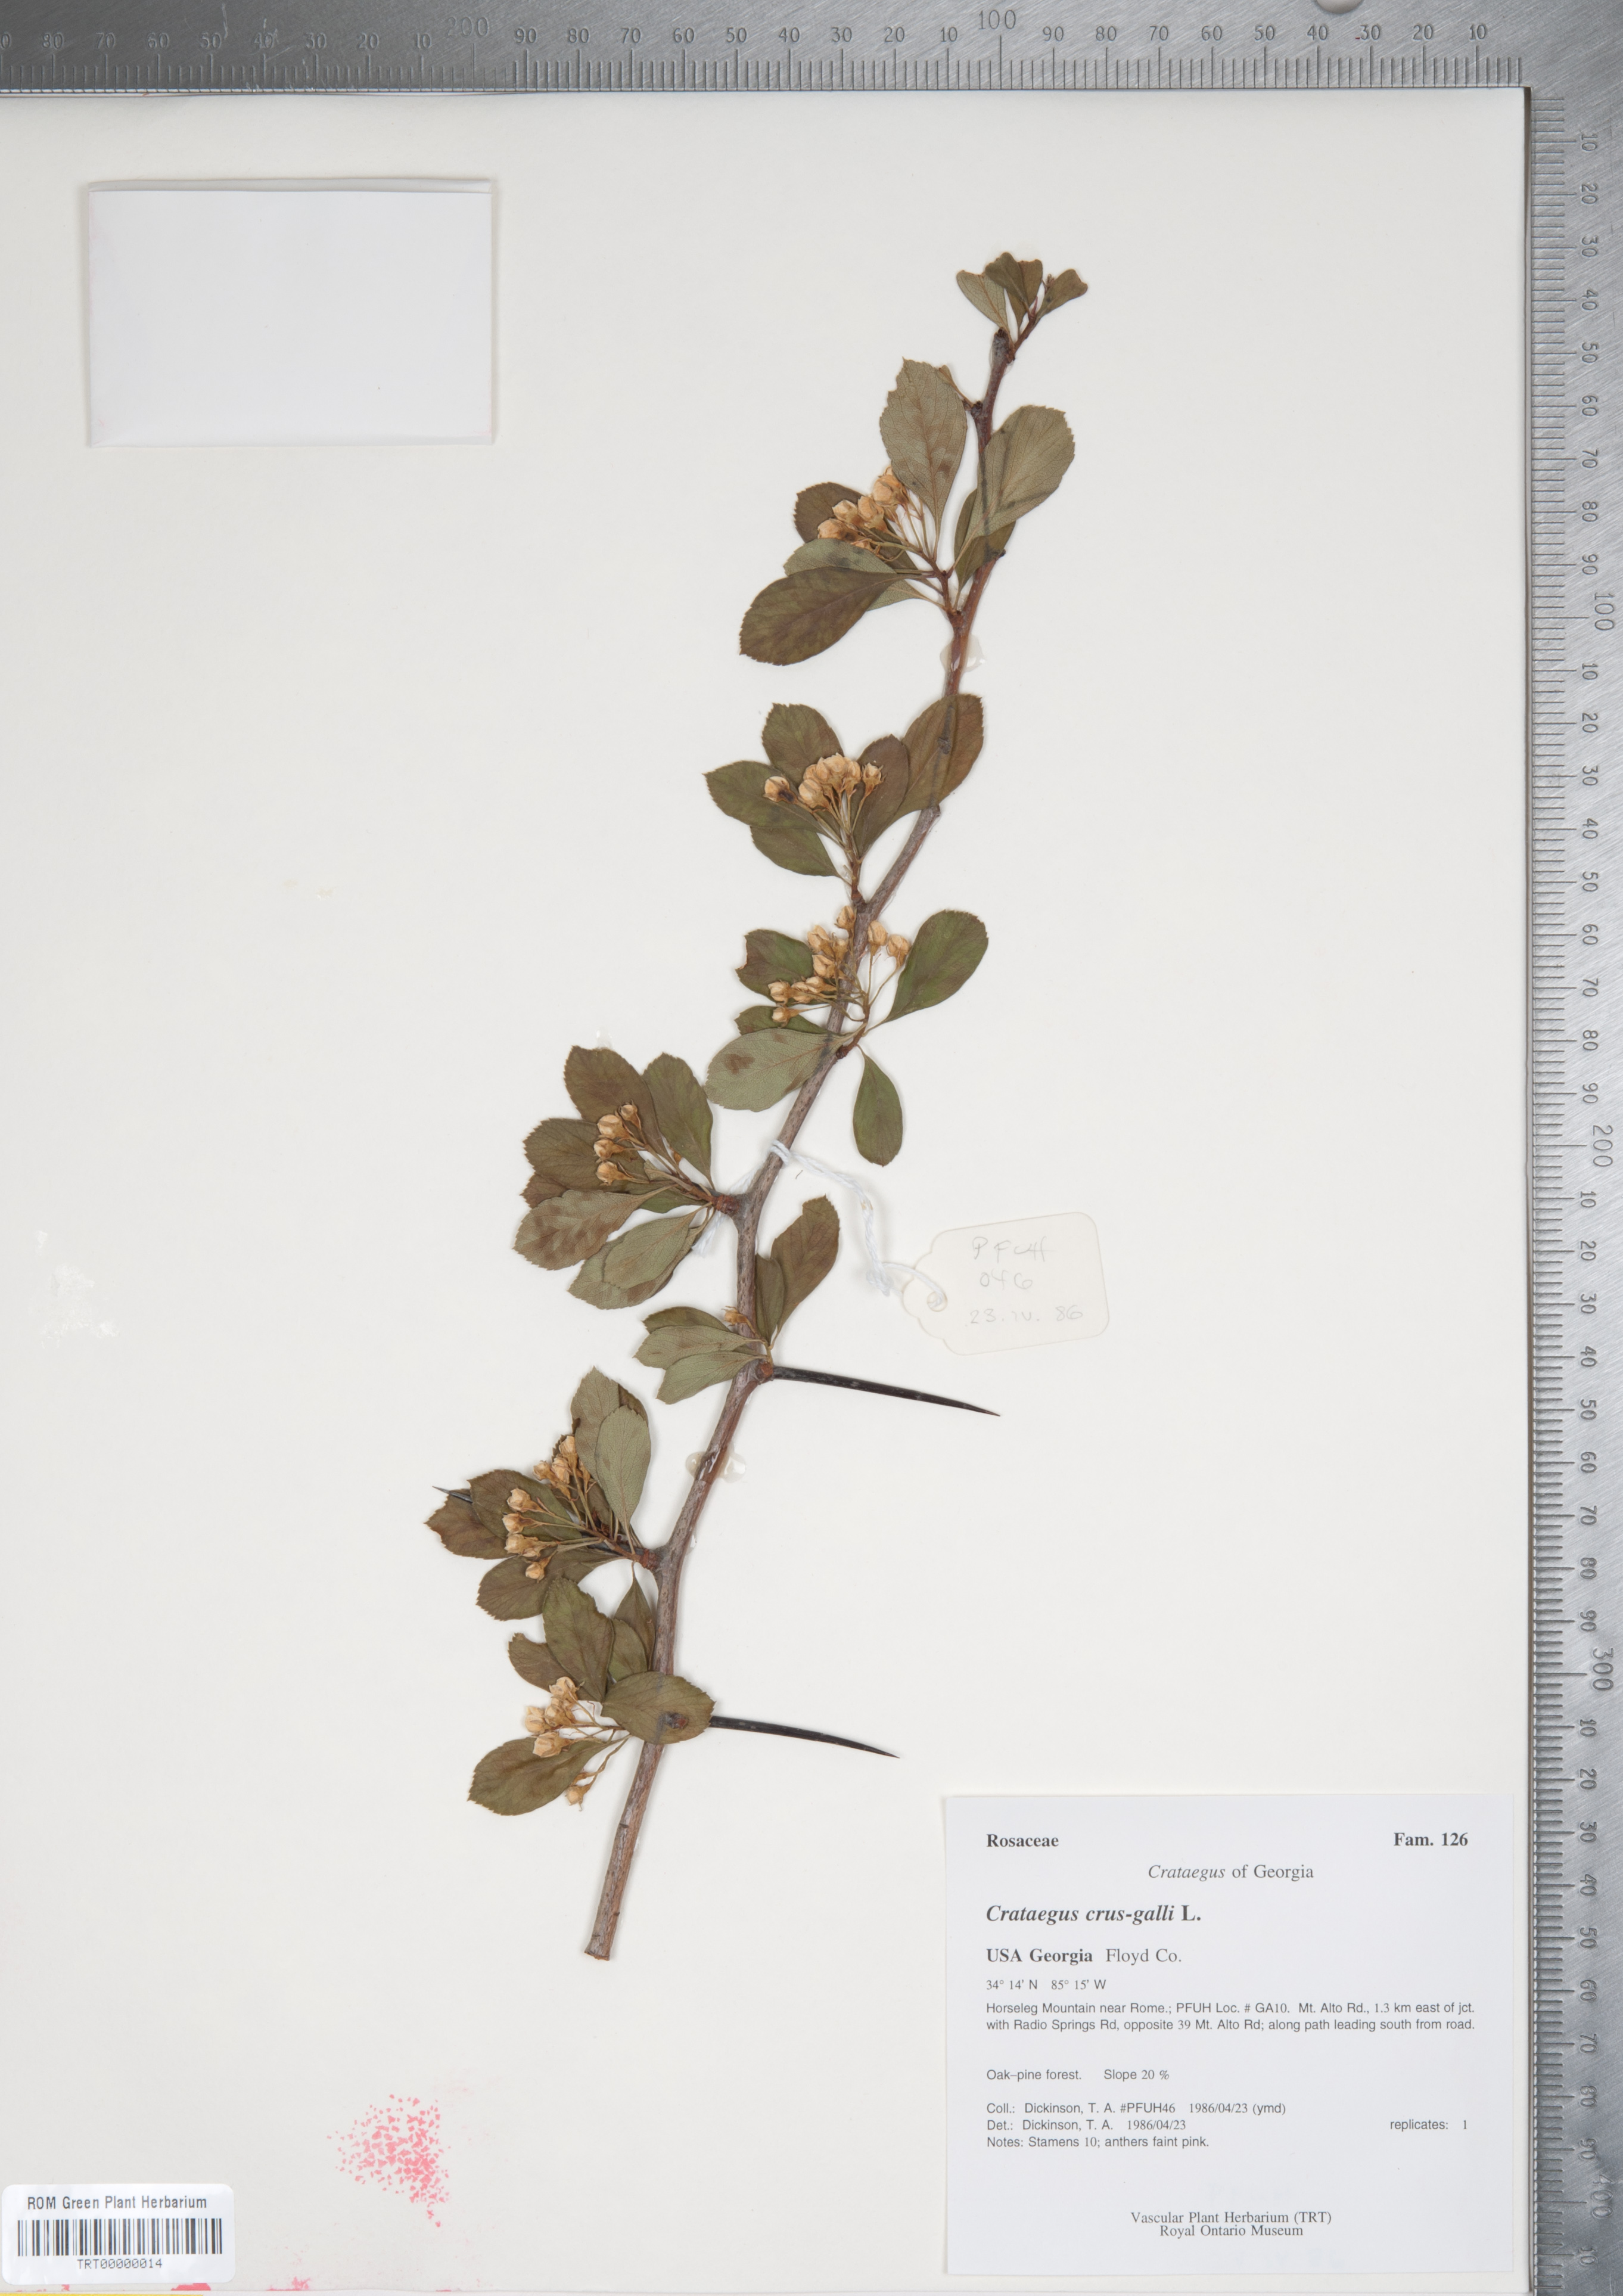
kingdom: Plantae
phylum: Tracheophyta
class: Magnoliopsida
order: Rosales
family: Rosaceae
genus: Crataegus
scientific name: Crataegus crus-galli
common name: Cockspurthorn
